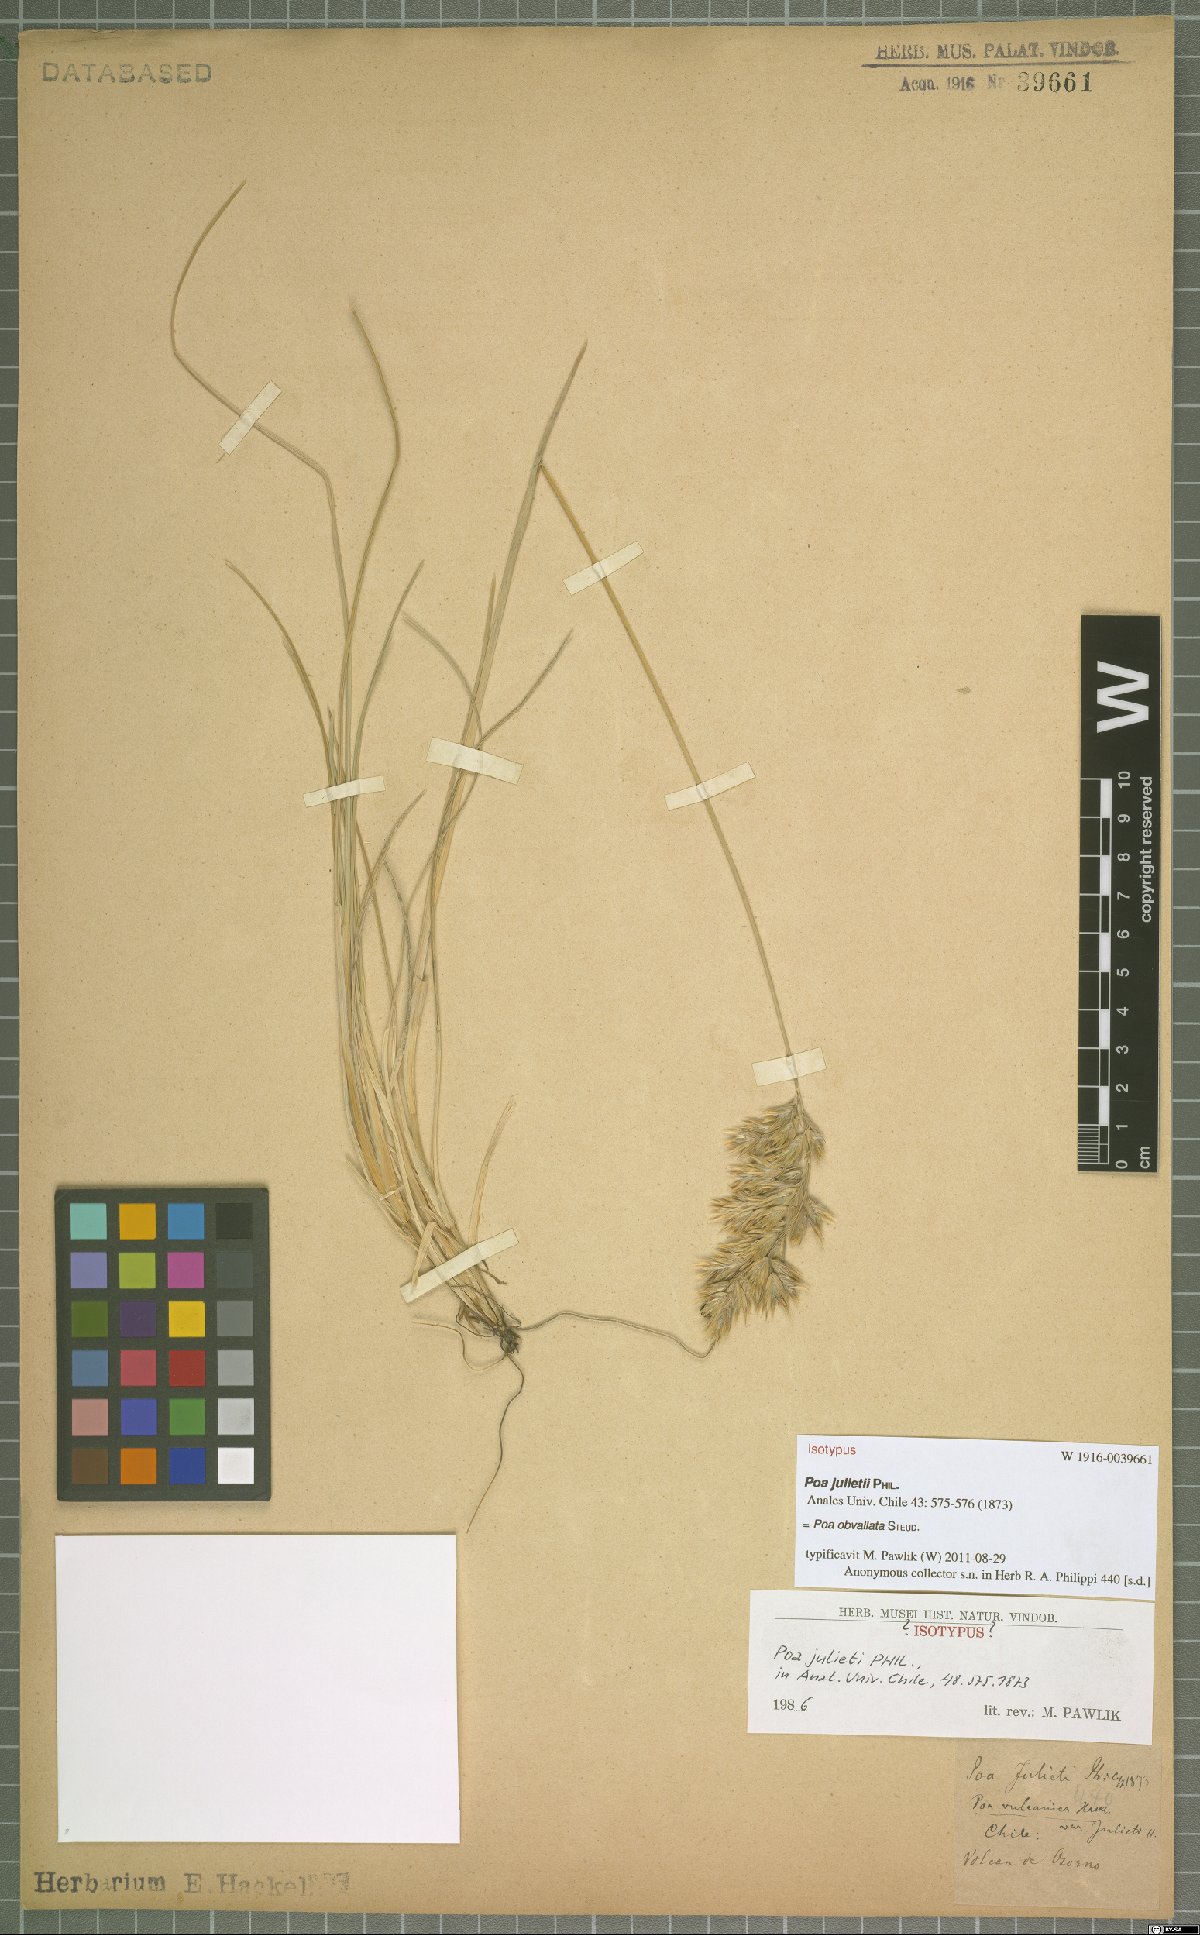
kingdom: Plantae
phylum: Tracheophyta
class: Liliopsida
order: Poales
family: Poaceae
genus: Poa
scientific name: Poa obvallata
